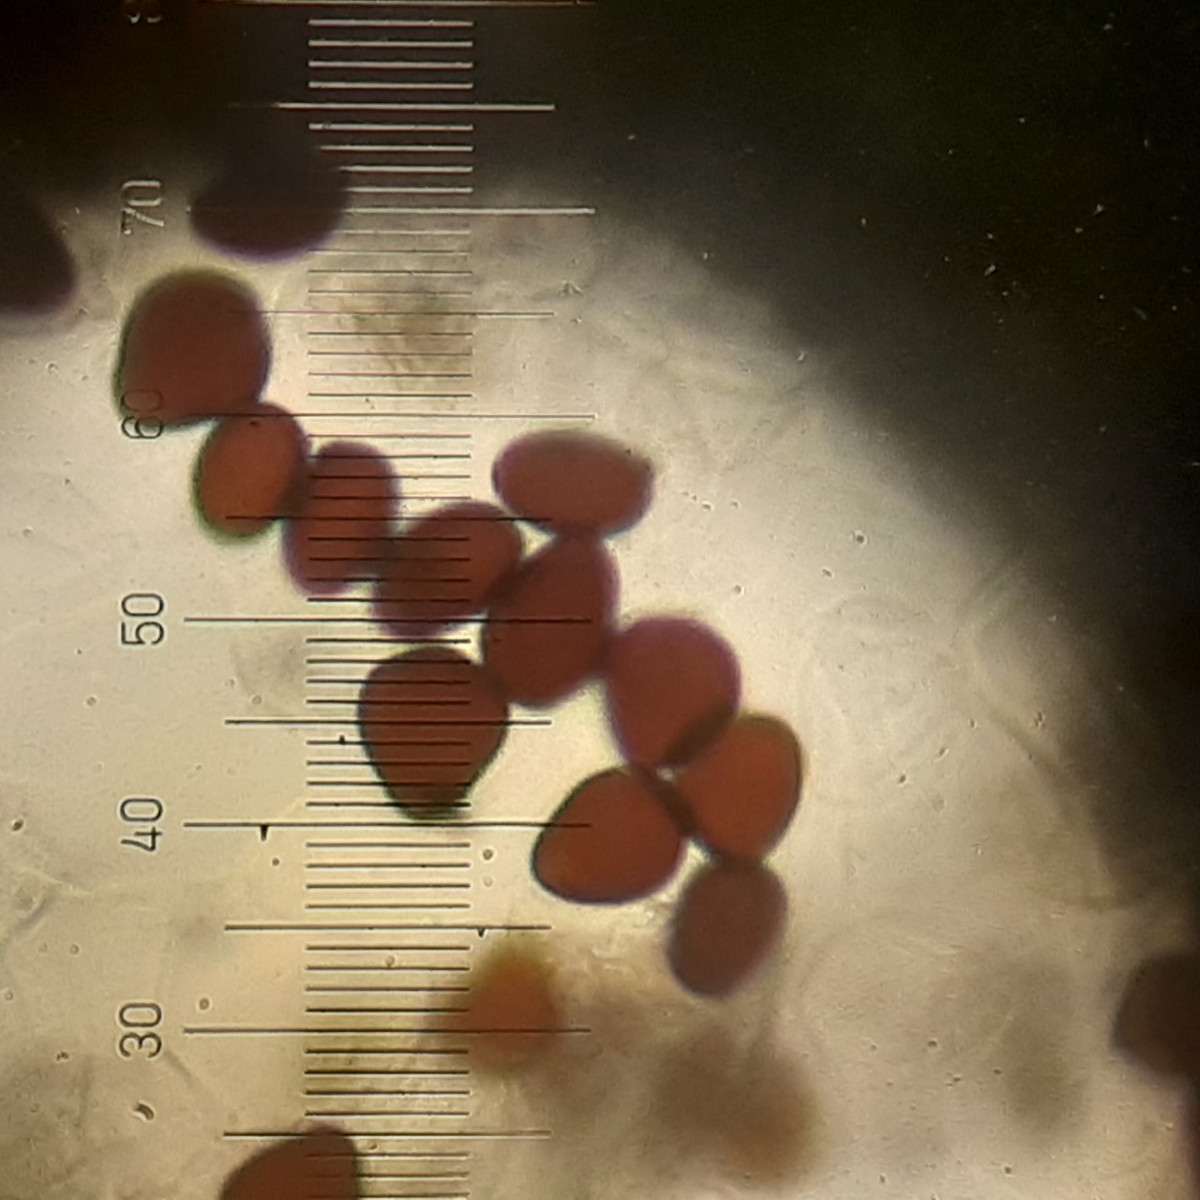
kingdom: Fungi
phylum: Basidiomycota
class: Agaricomycetes
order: Agaricales
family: Psathyrellaceae
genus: Parasola
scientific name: Parasola crataegi
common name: tjørne-hjulhat
